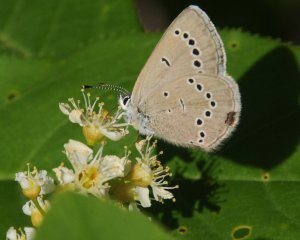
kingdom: Animalia
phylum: Arthropoda
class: Insecta
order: Lepidoptera
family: Lycaenidae
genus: Glaucopsyche
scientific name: Glaucopsyche lygdamus
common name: Silvery Blue
